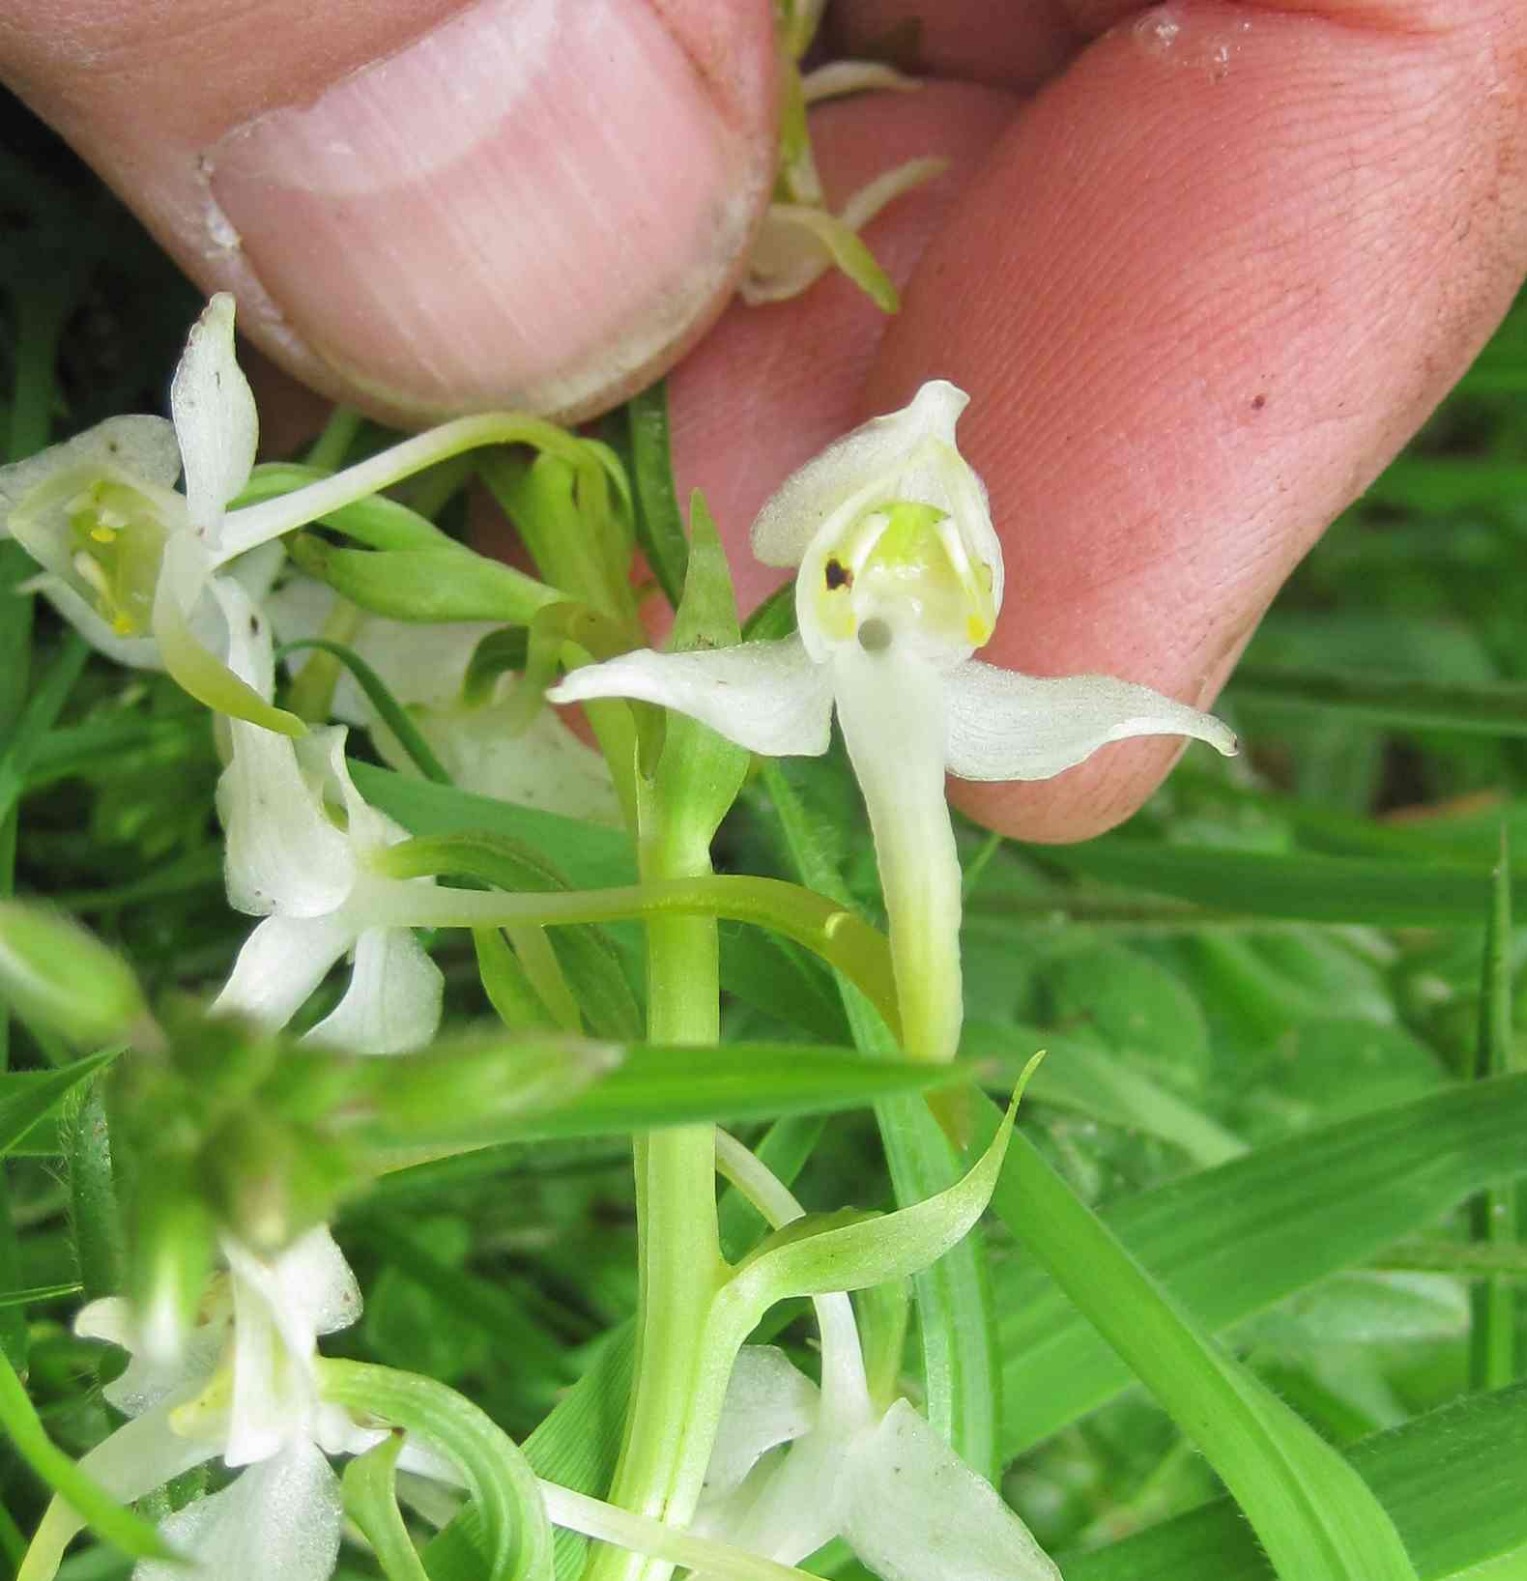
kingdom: Plantae
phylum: Tracheophyta
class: Liliopsida
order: Asparagales
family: Orchidaceae
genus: Platanthera
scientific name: Platanthera chlorantha
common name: Skov-gøgelilje
